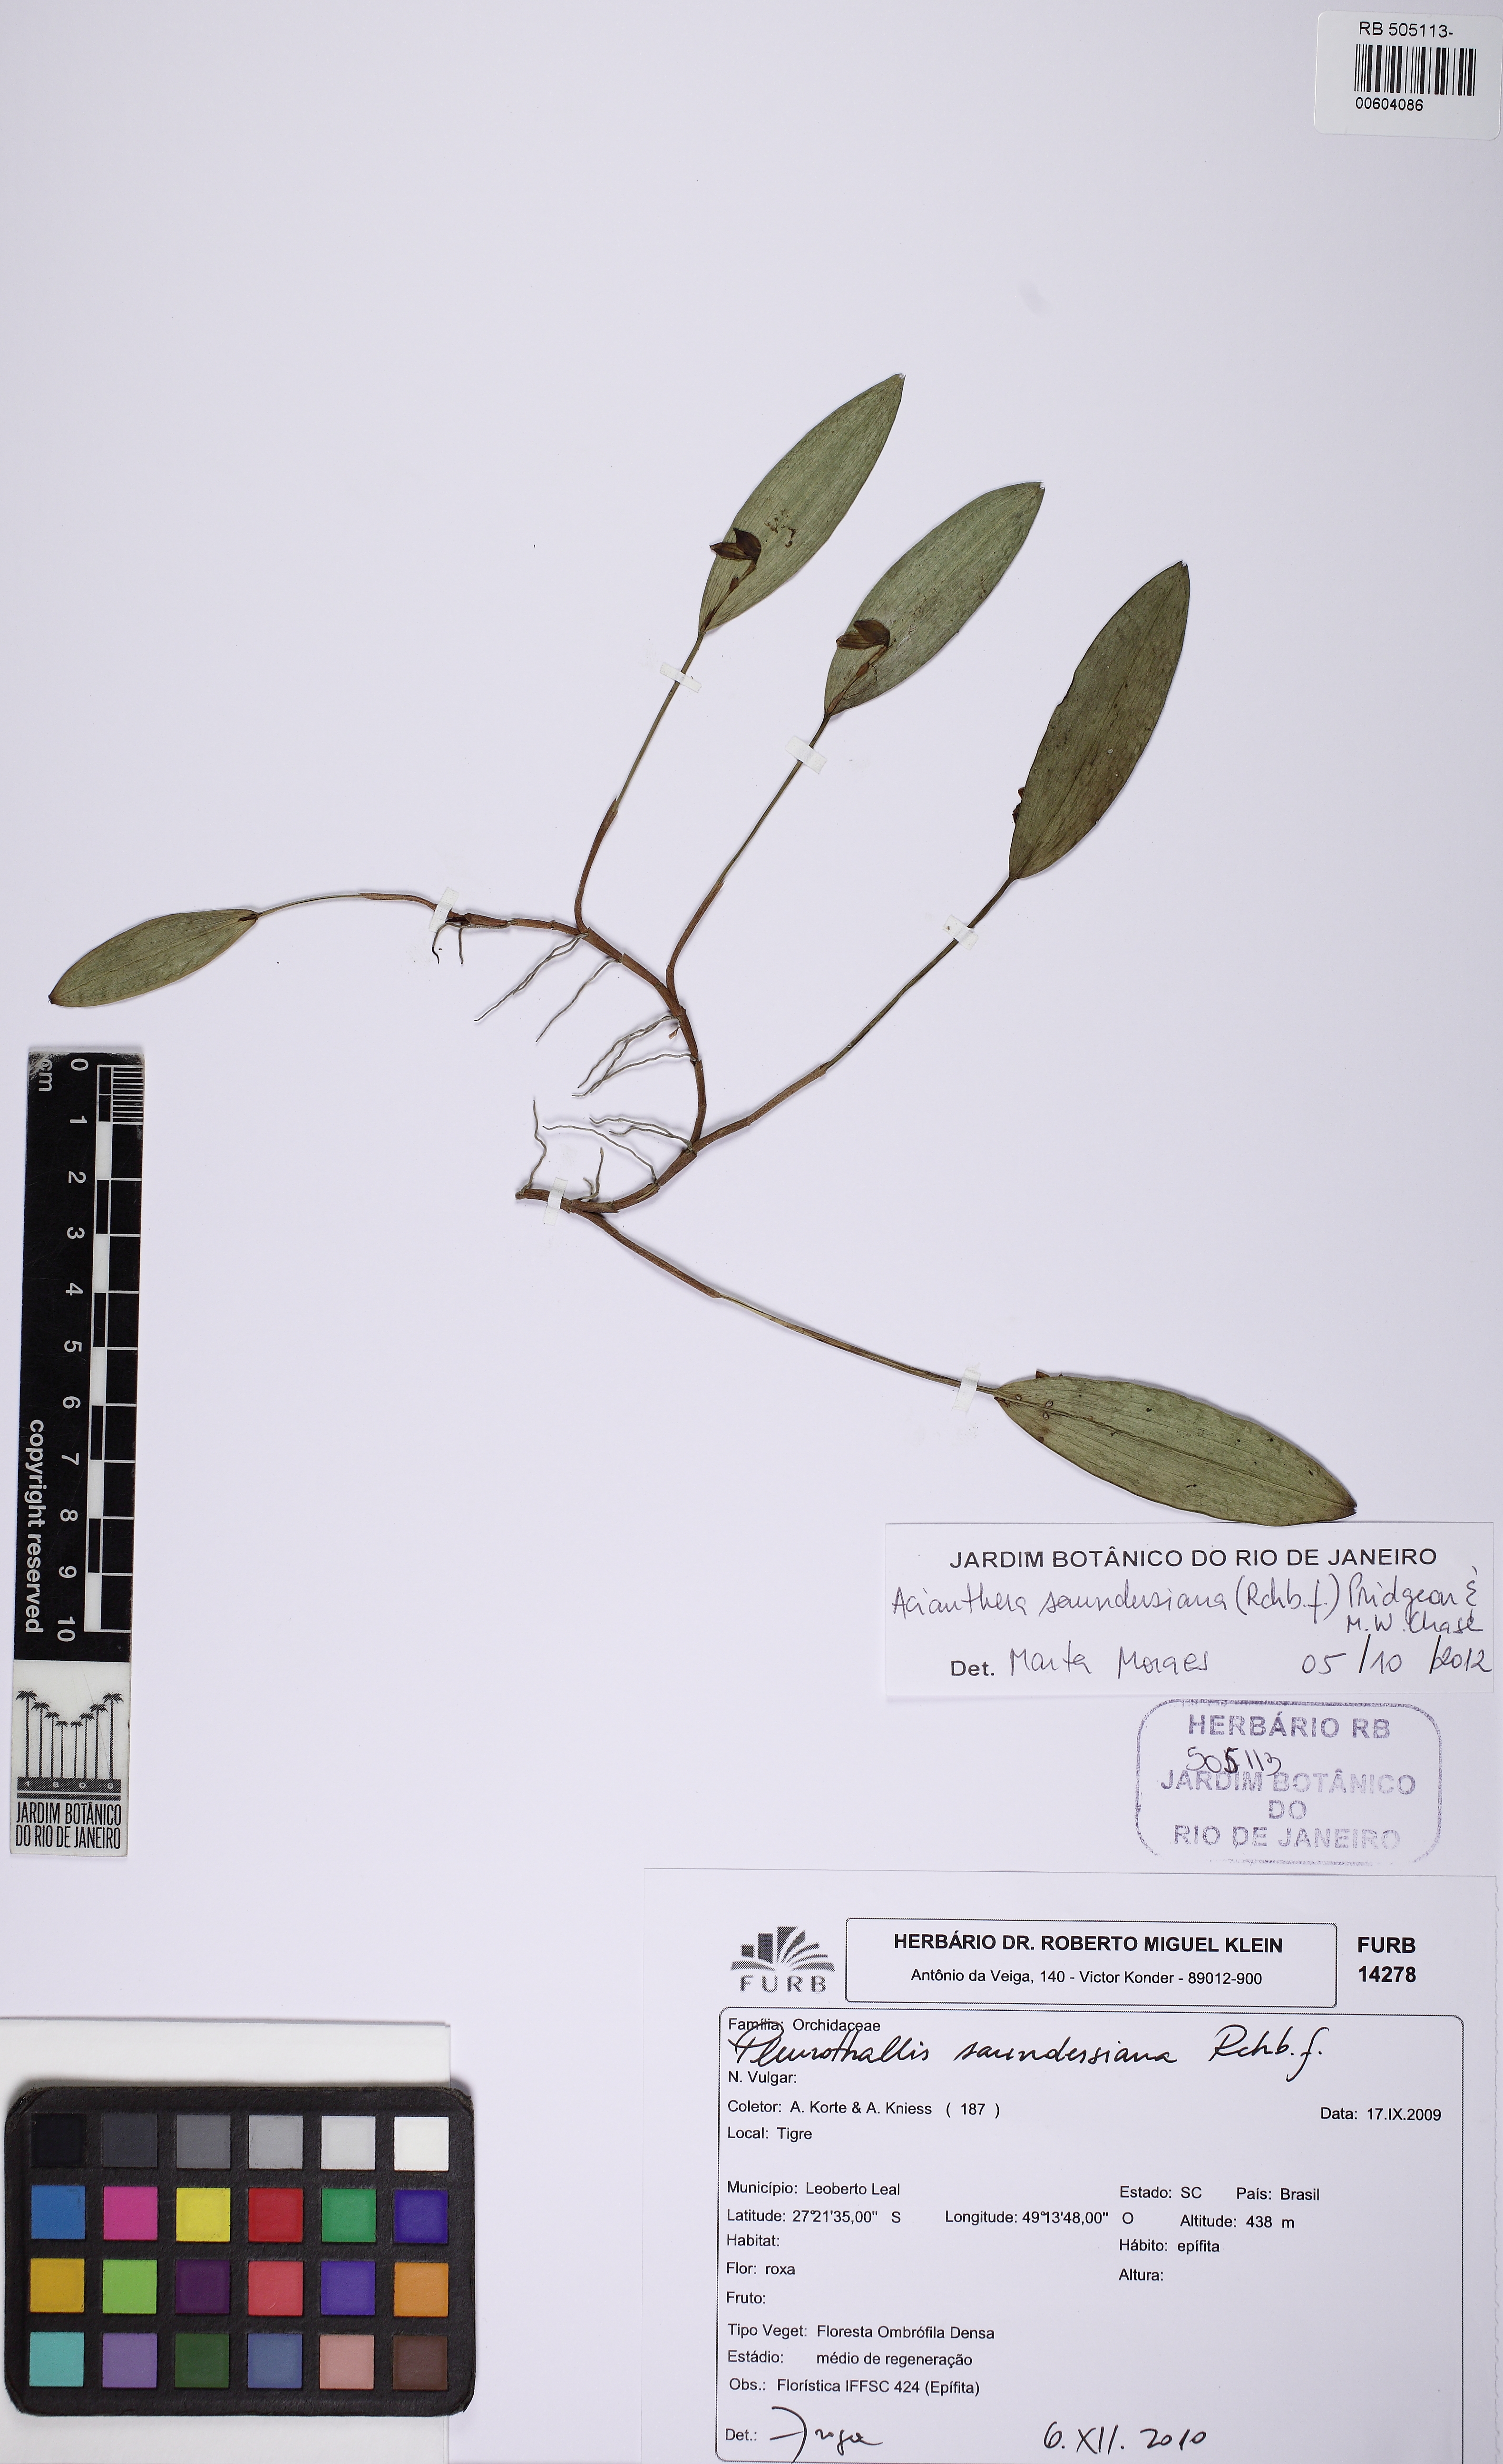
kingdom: Plantae
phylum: Tracheophyta
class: Liliopsida
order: Asparagales
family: Orchidaceae
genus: Acianthera
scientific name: Acianthera saundersiana
